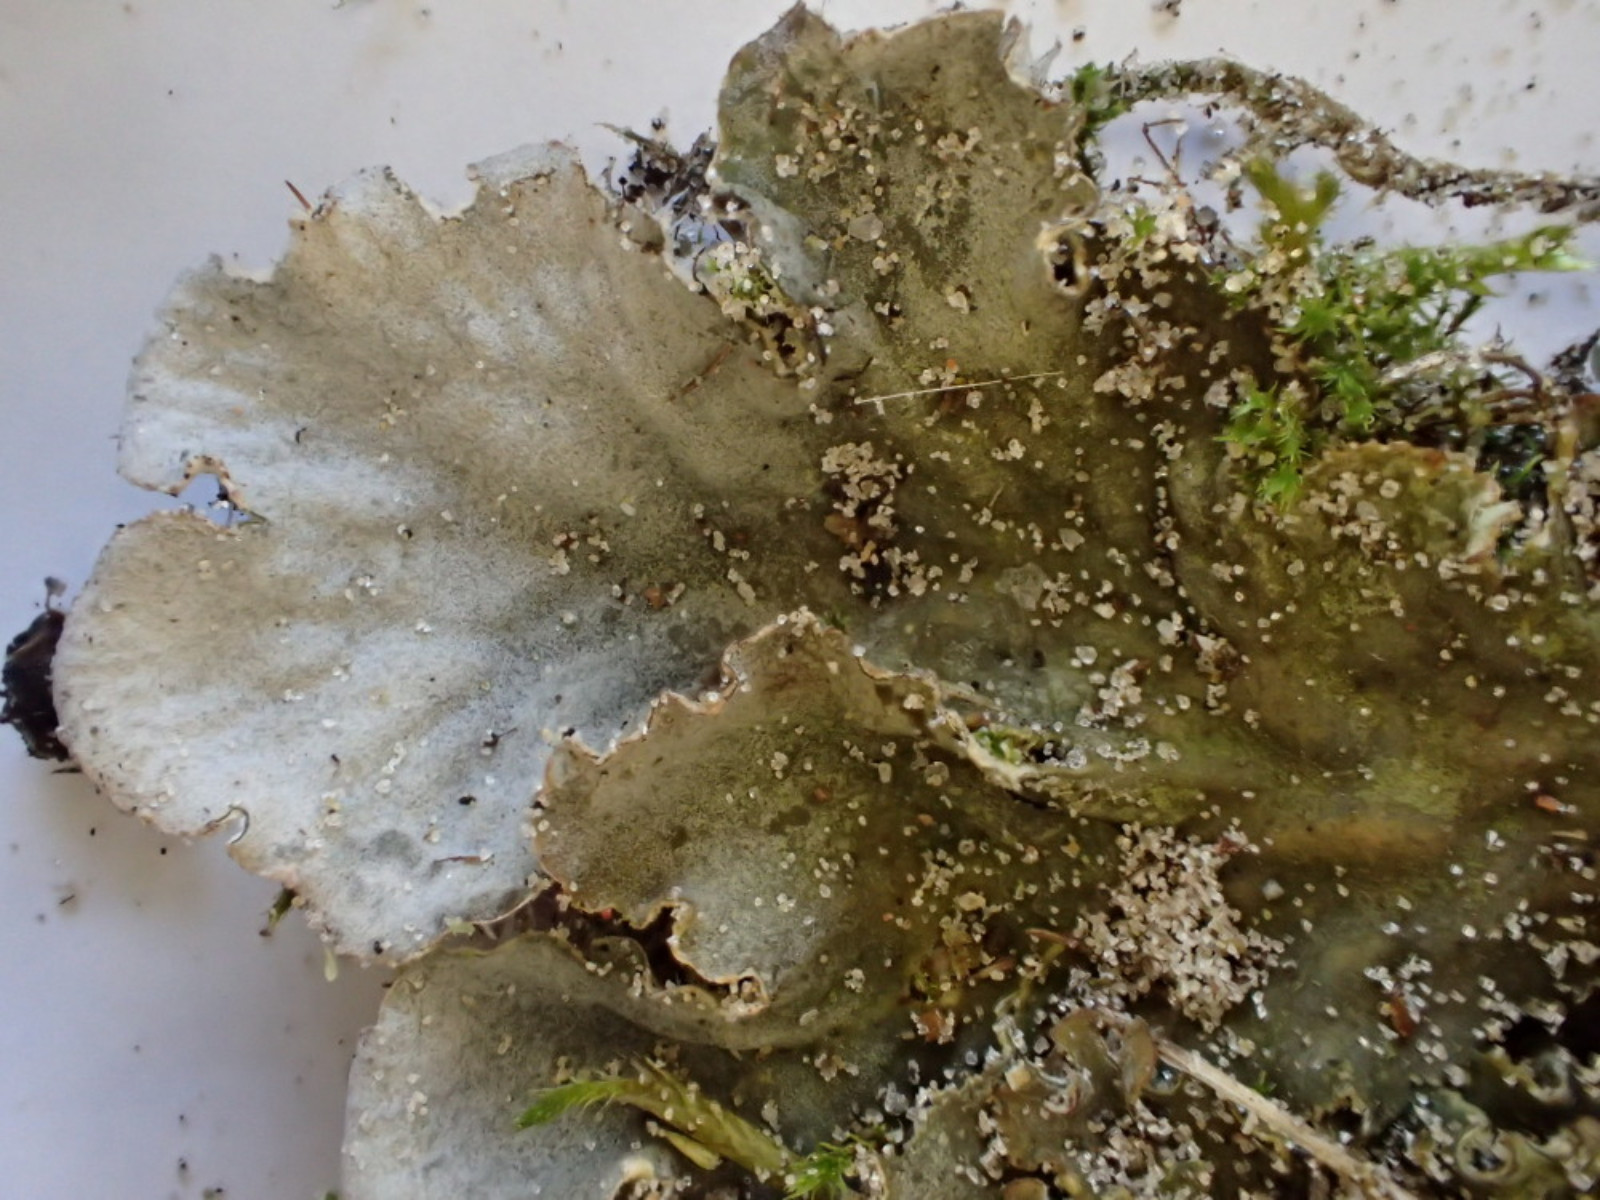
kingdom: Fungi
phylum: Ascomycota
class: Lecanoromycetes
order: Peltigerales
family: Peltigeraceae
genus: Peltigera
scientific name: Peltigera canina
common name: hunde-skjoldlav
